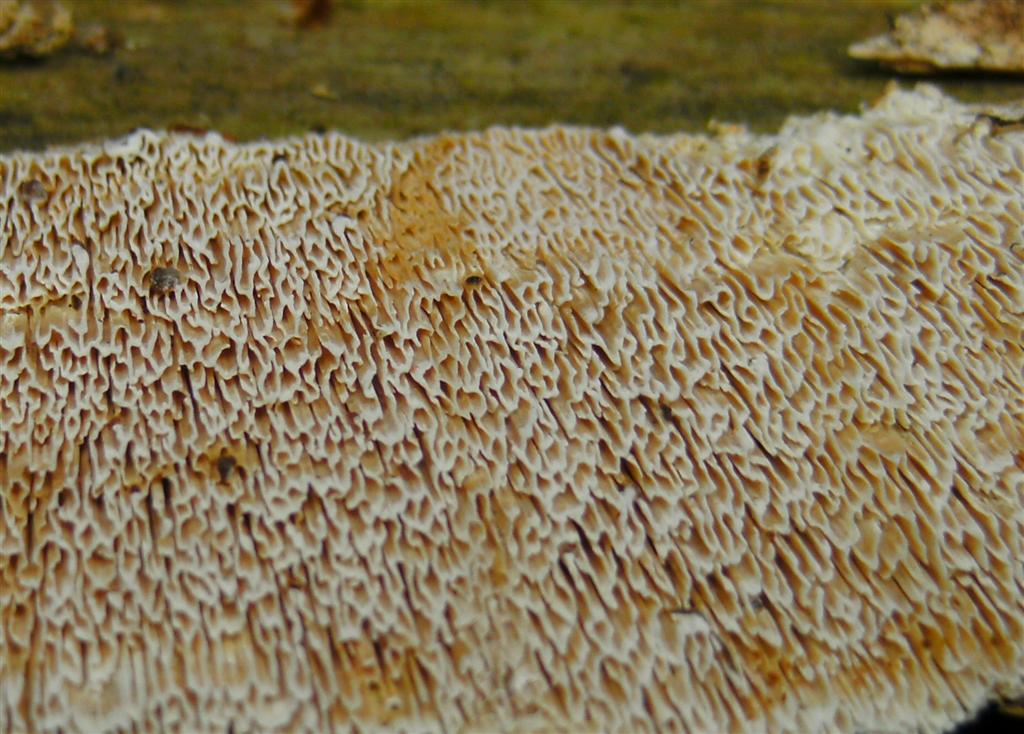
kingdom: Fungi
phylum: Basidiomycota
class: Agaricomycetes
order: Polyporales
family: Fomitopsidaceae
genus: Neoantrodia
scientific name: Neoantrodia serialis
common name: række-sejporesvamp
